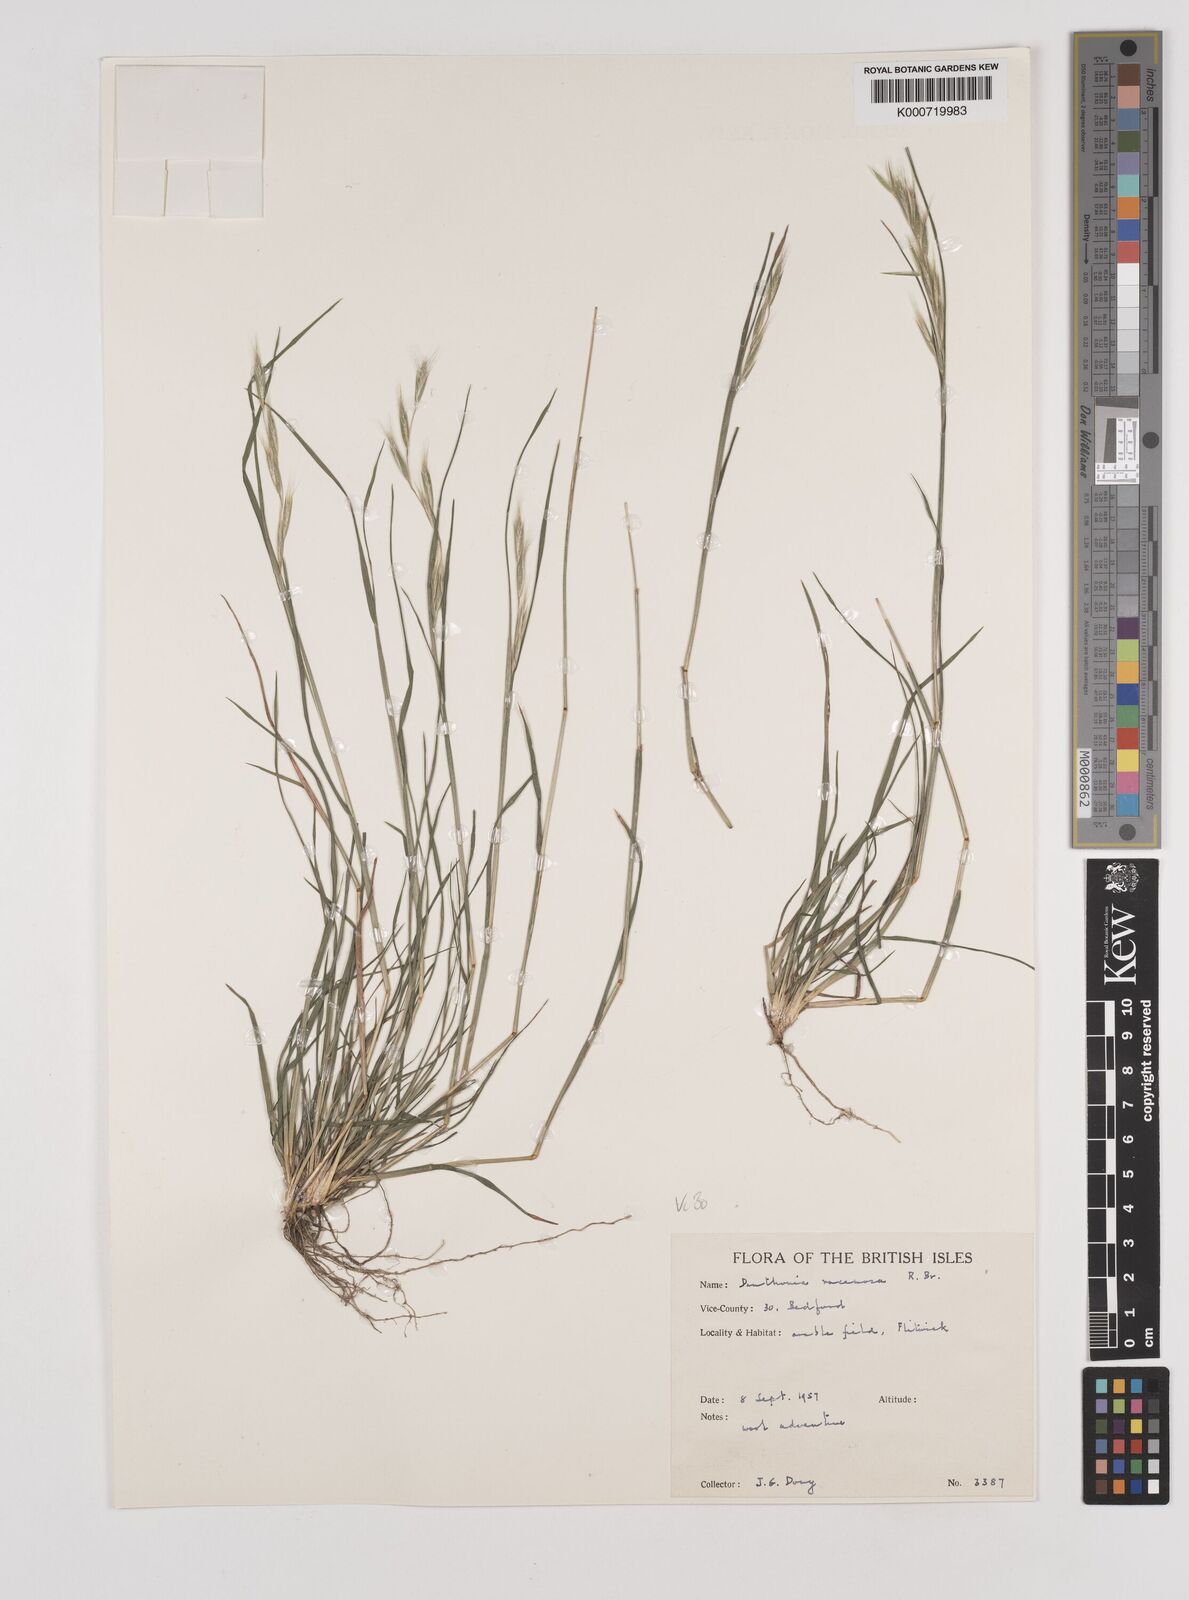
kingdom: Plantae
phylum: Tracheophyta
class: Liliopsida
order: Poales
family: Poaceae
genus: Rytidosperma
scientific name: Rytidosperma racemosum
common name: Wallaby-grass
